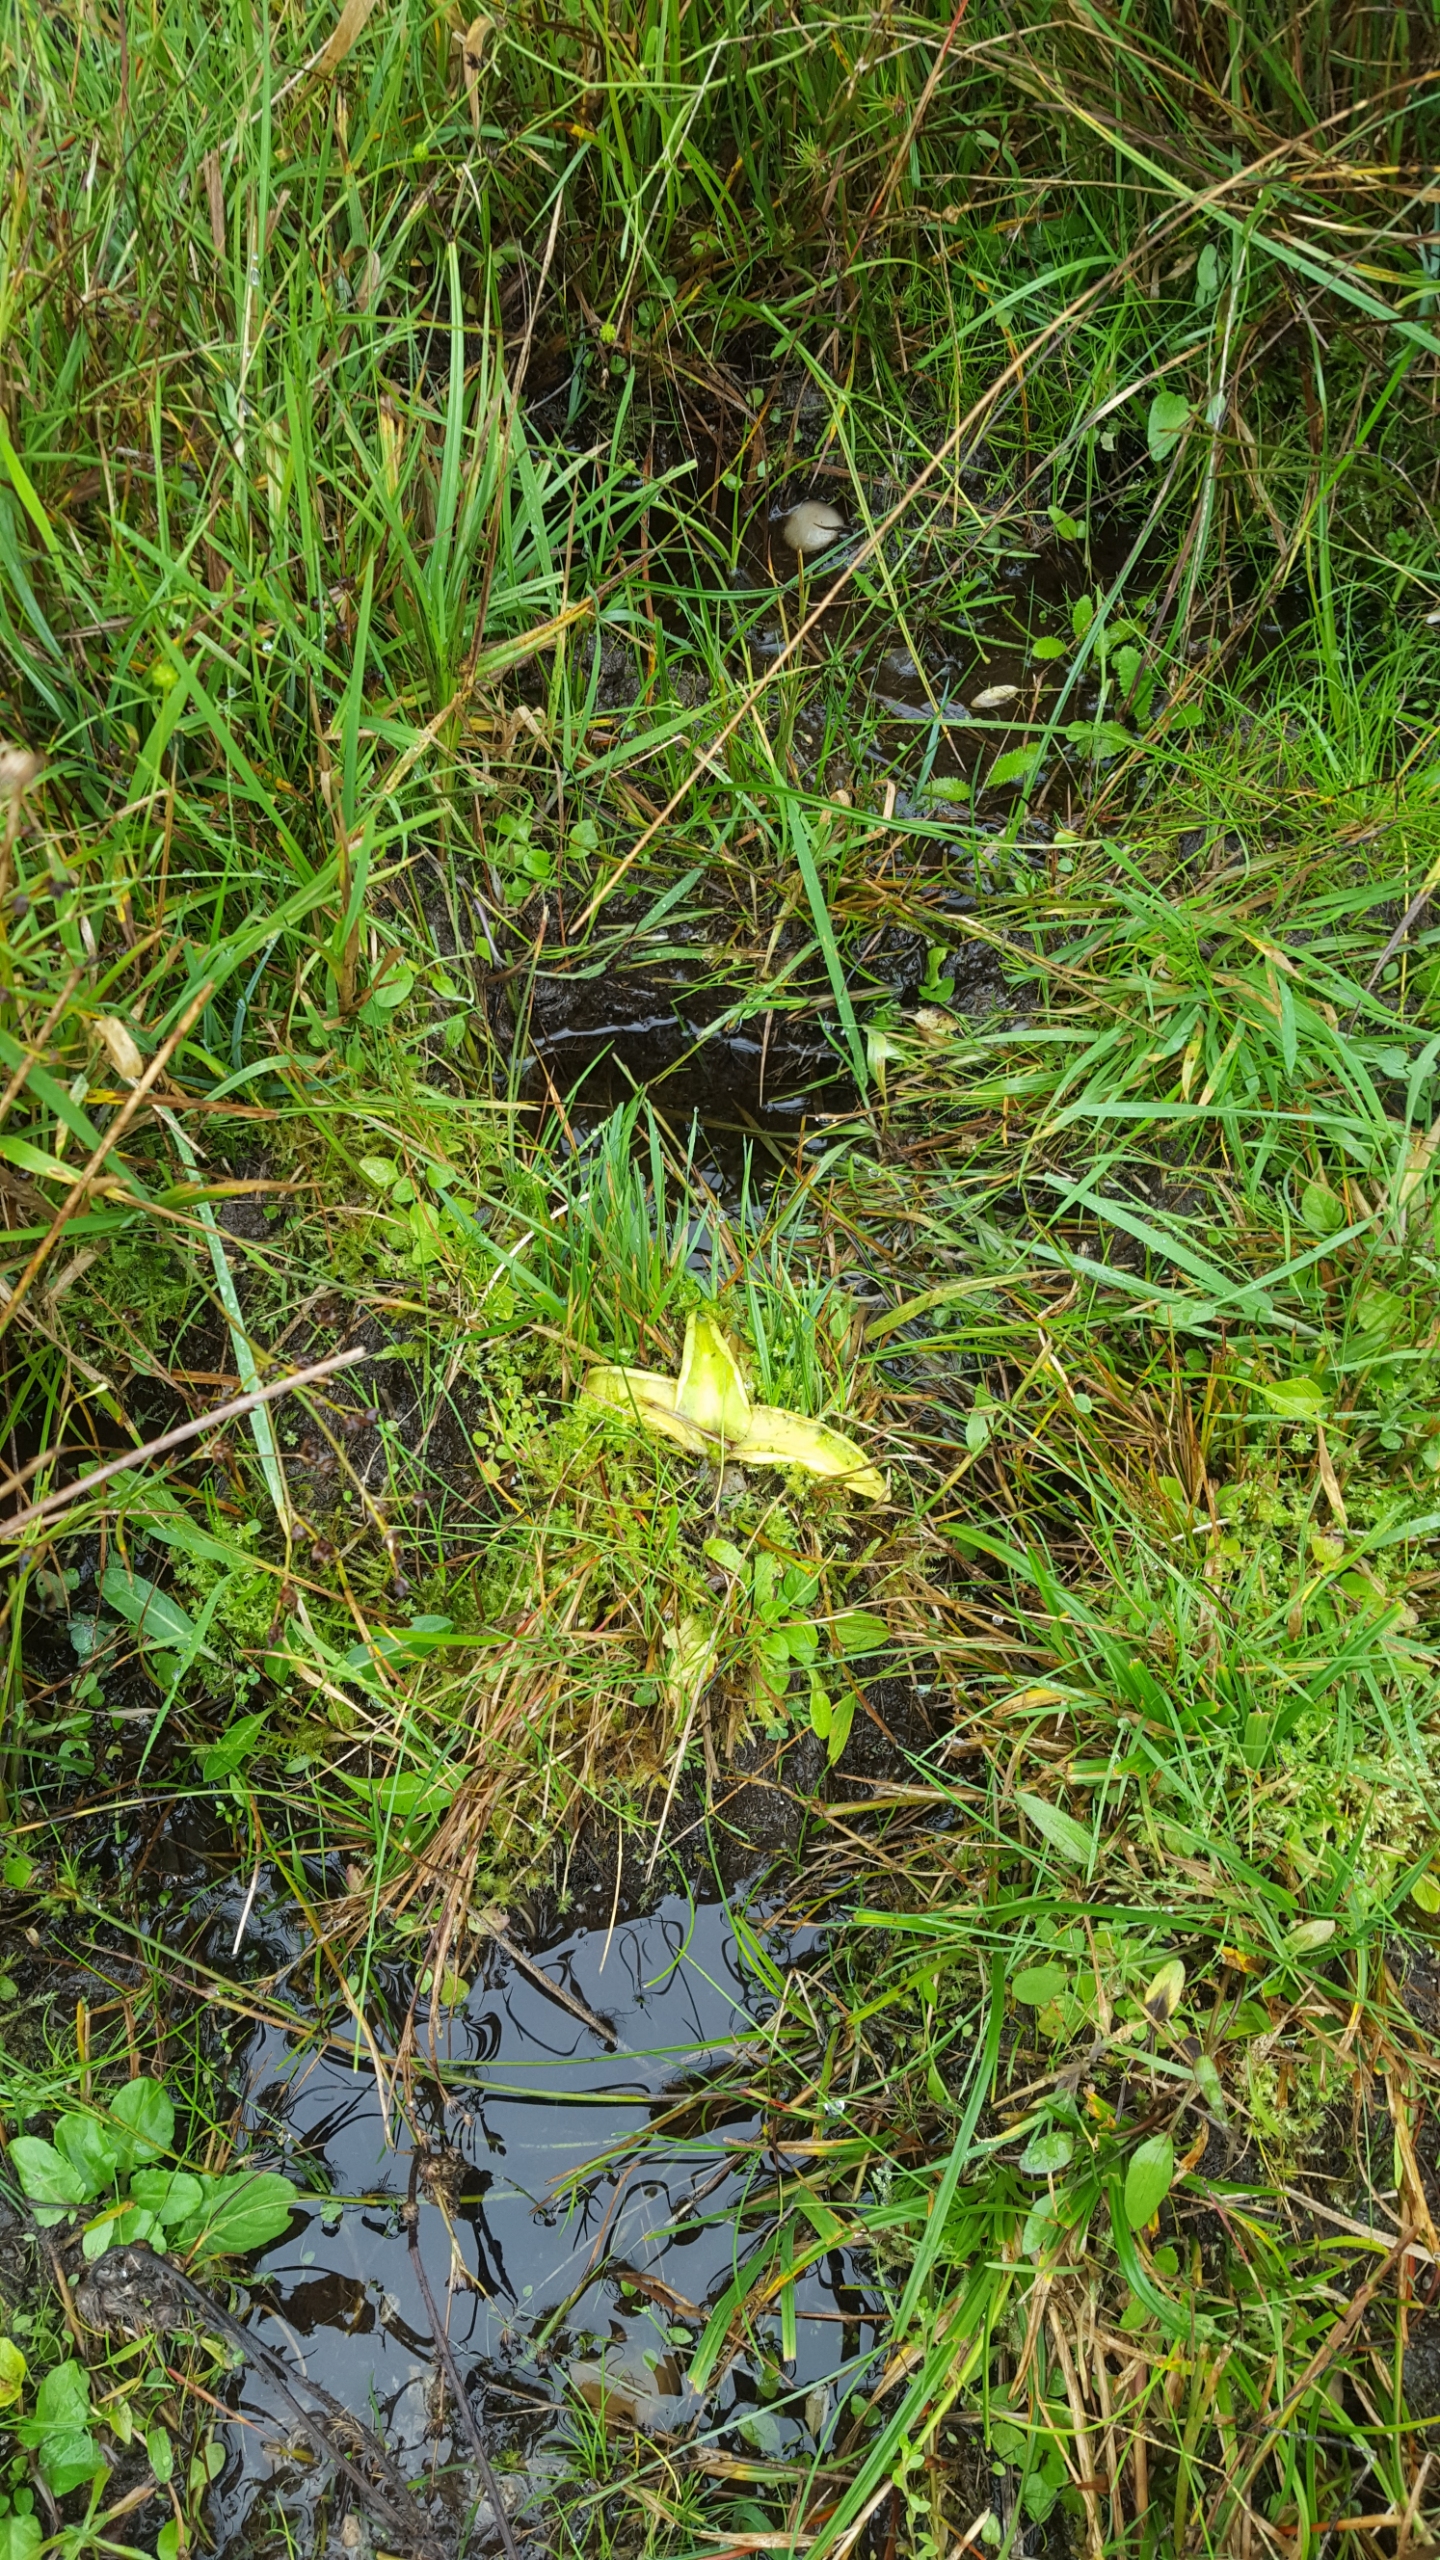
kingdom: Plantae
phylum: Tracheophyta
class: Magnoliopsida
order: Lamiales
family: Lentibulariaceae
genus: Pinguicula
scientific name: Pinguicula vulgaris
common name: Vibefedt
